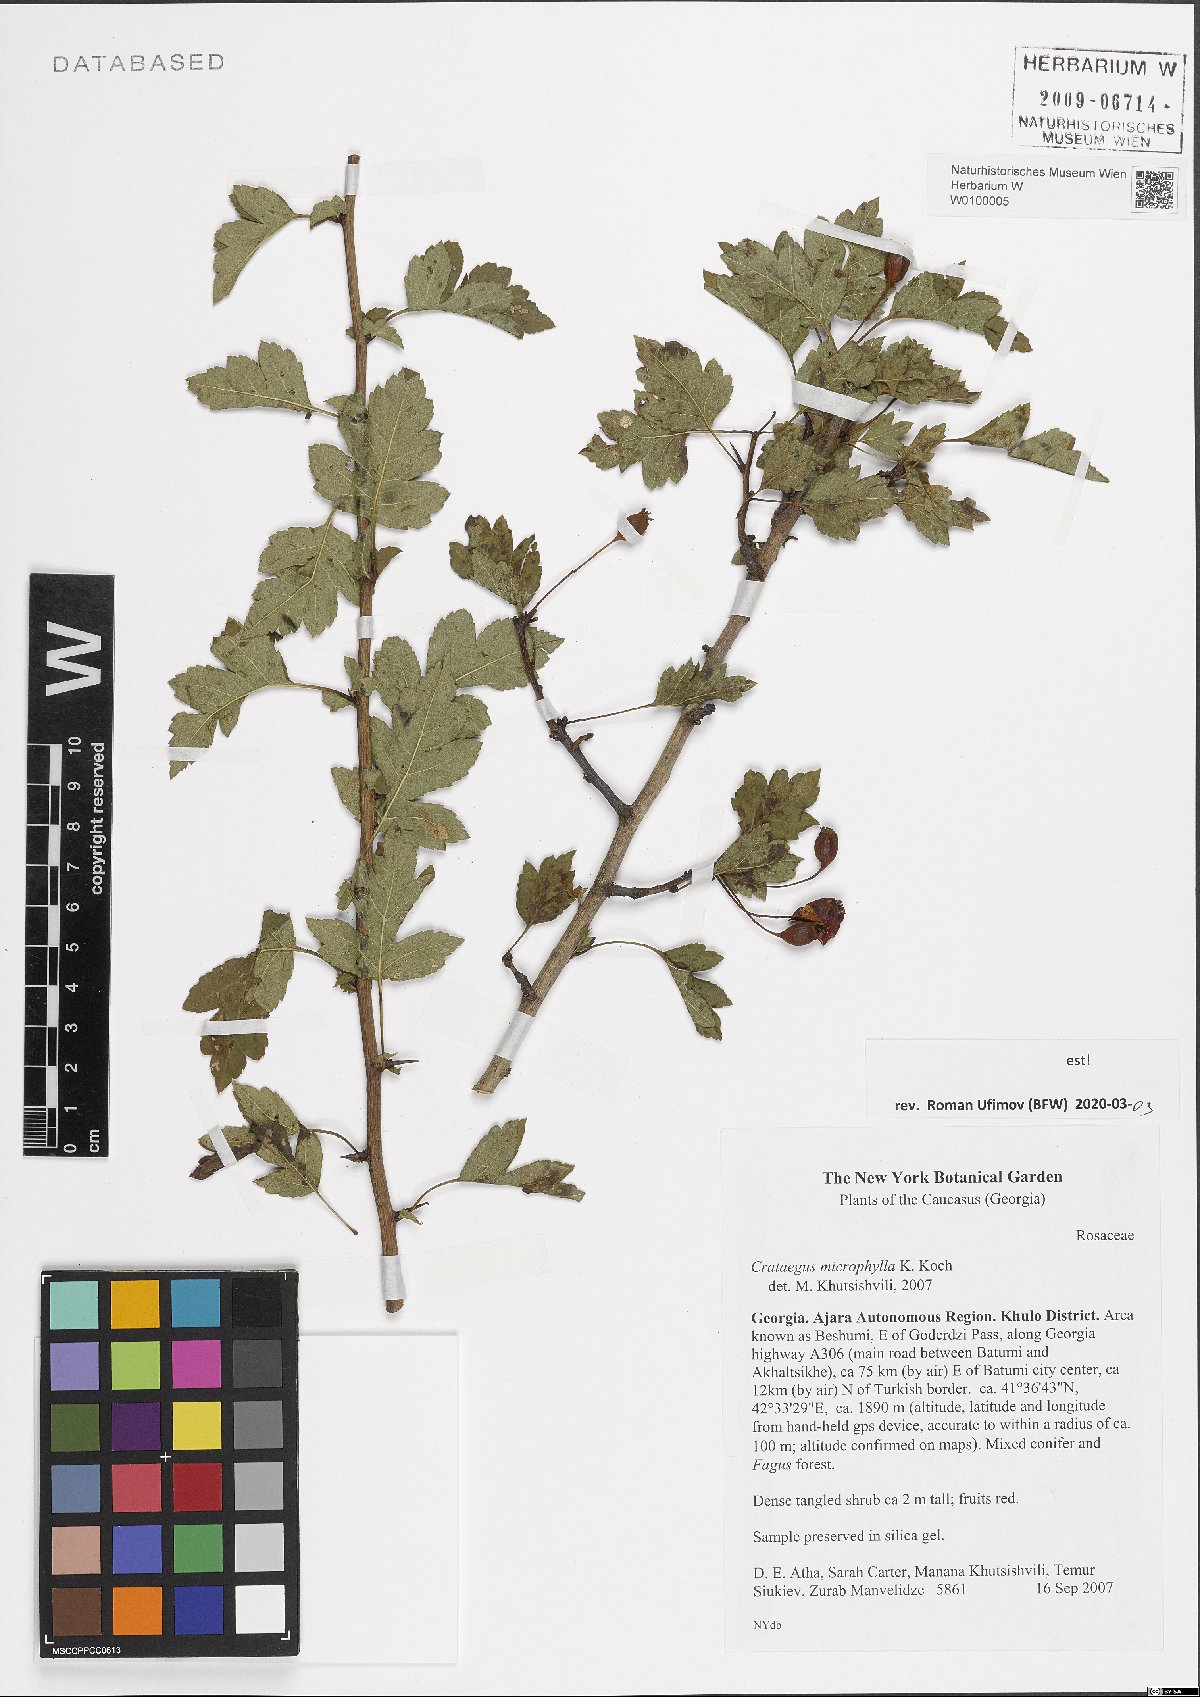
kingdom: Plantae
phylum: Tracheophyta
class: Magnoliopsida
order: Rosales
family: Rosaceae
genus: Crataegus
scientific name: Crataegus microphylla
